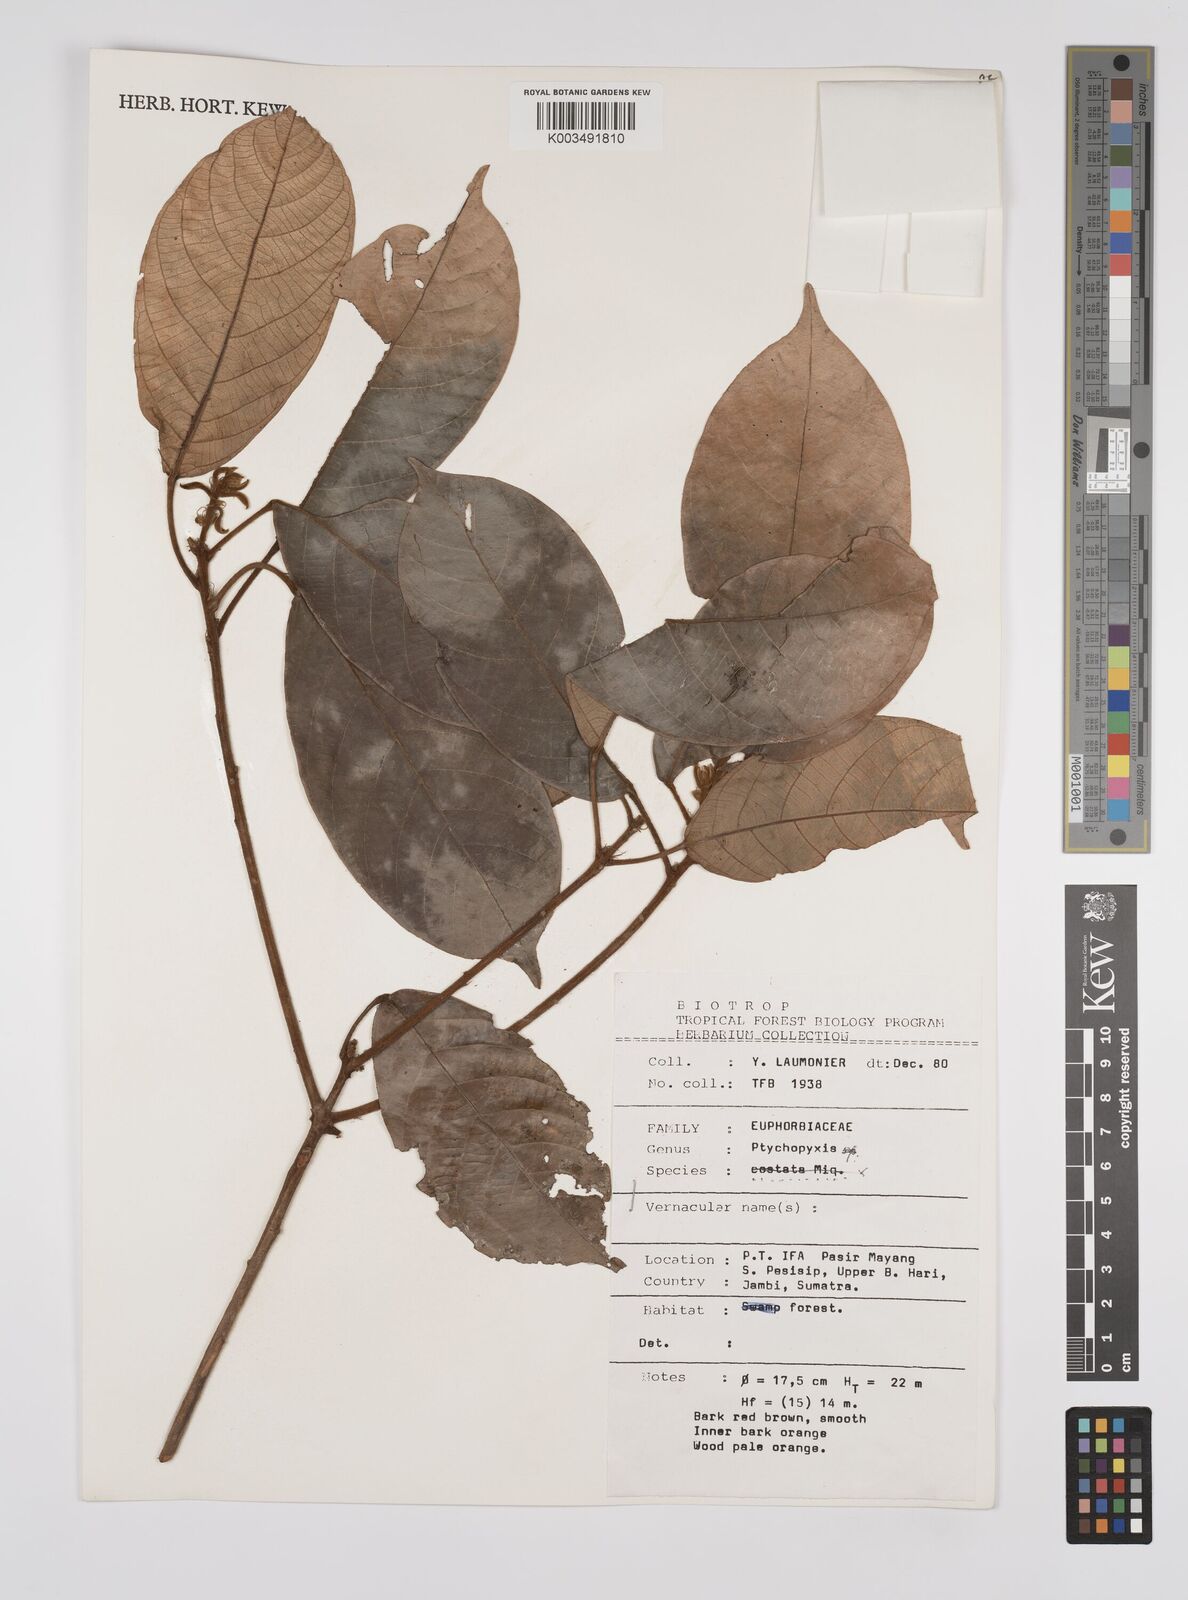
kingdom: Plantae
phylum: Tracheophyta
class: Magnoliopsida
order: Malpighiales
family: Euphorbiaceae
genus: Ptychopyxis
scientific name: Ptychopyxis
